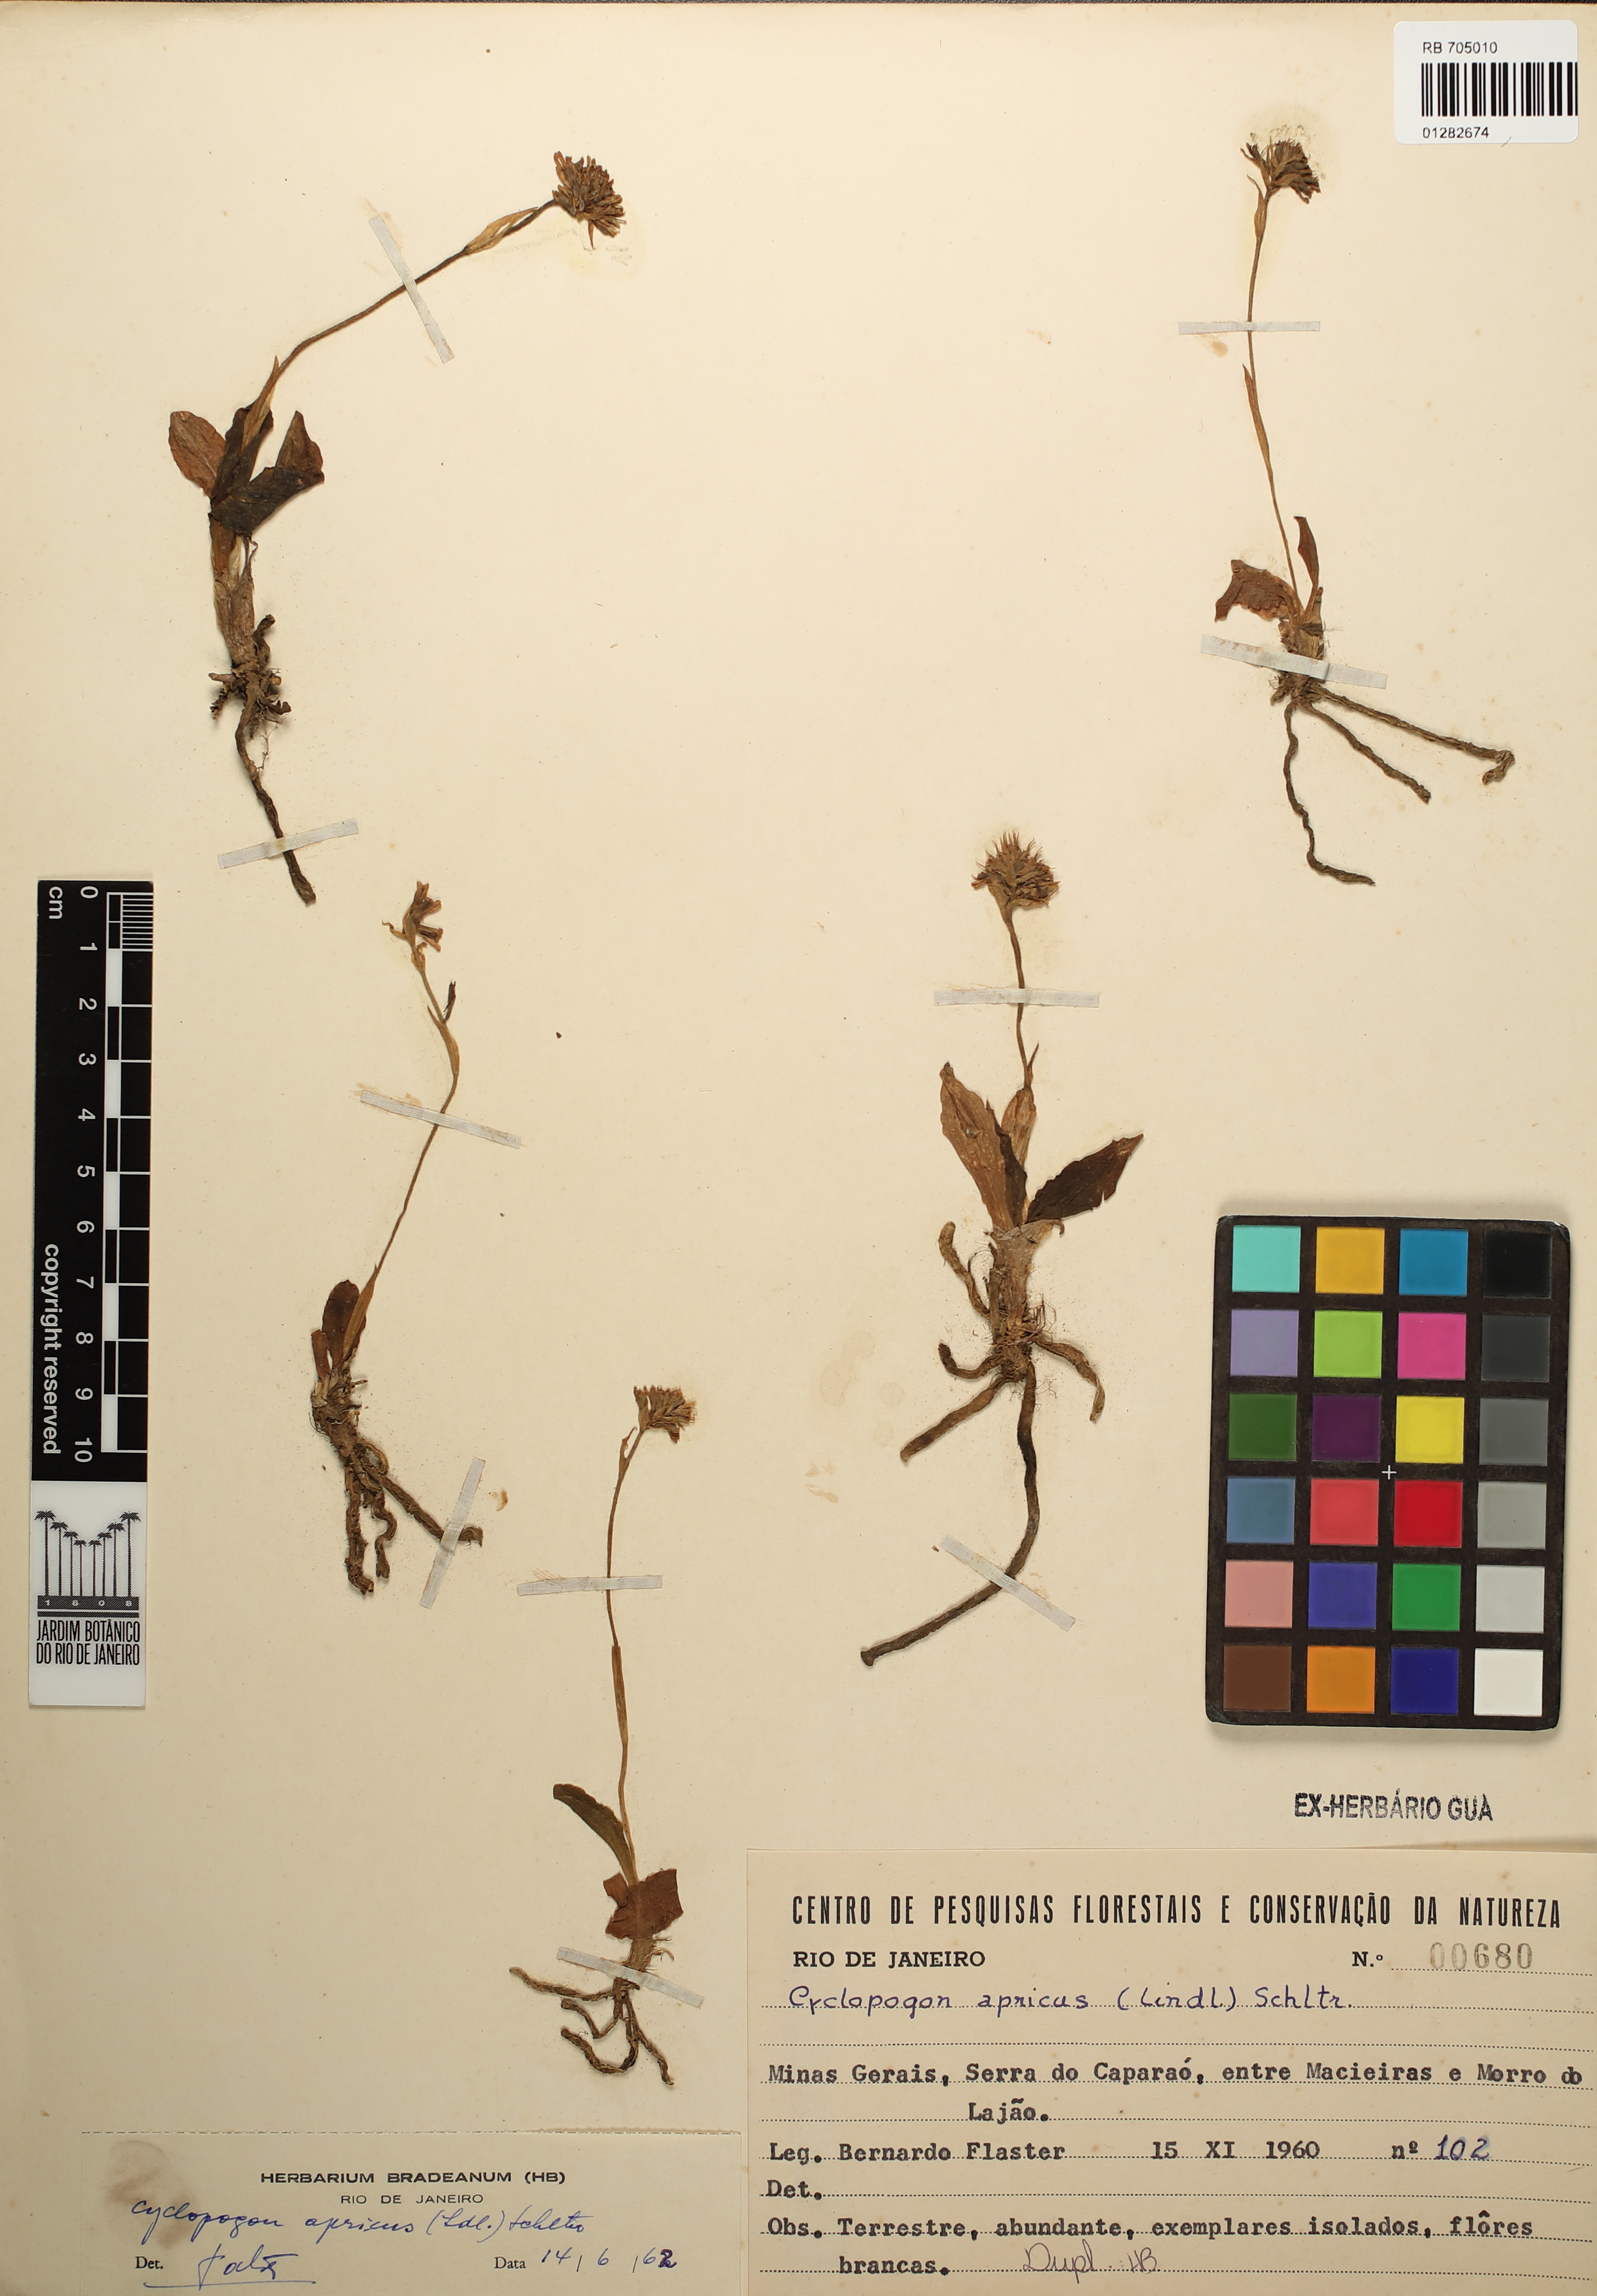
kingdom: Plantae
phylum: Tracheophyta
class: Liliopsida
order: Asparagales
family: Orchidaceae
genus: Cyclopogon
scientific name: Cyclopogon apricus
